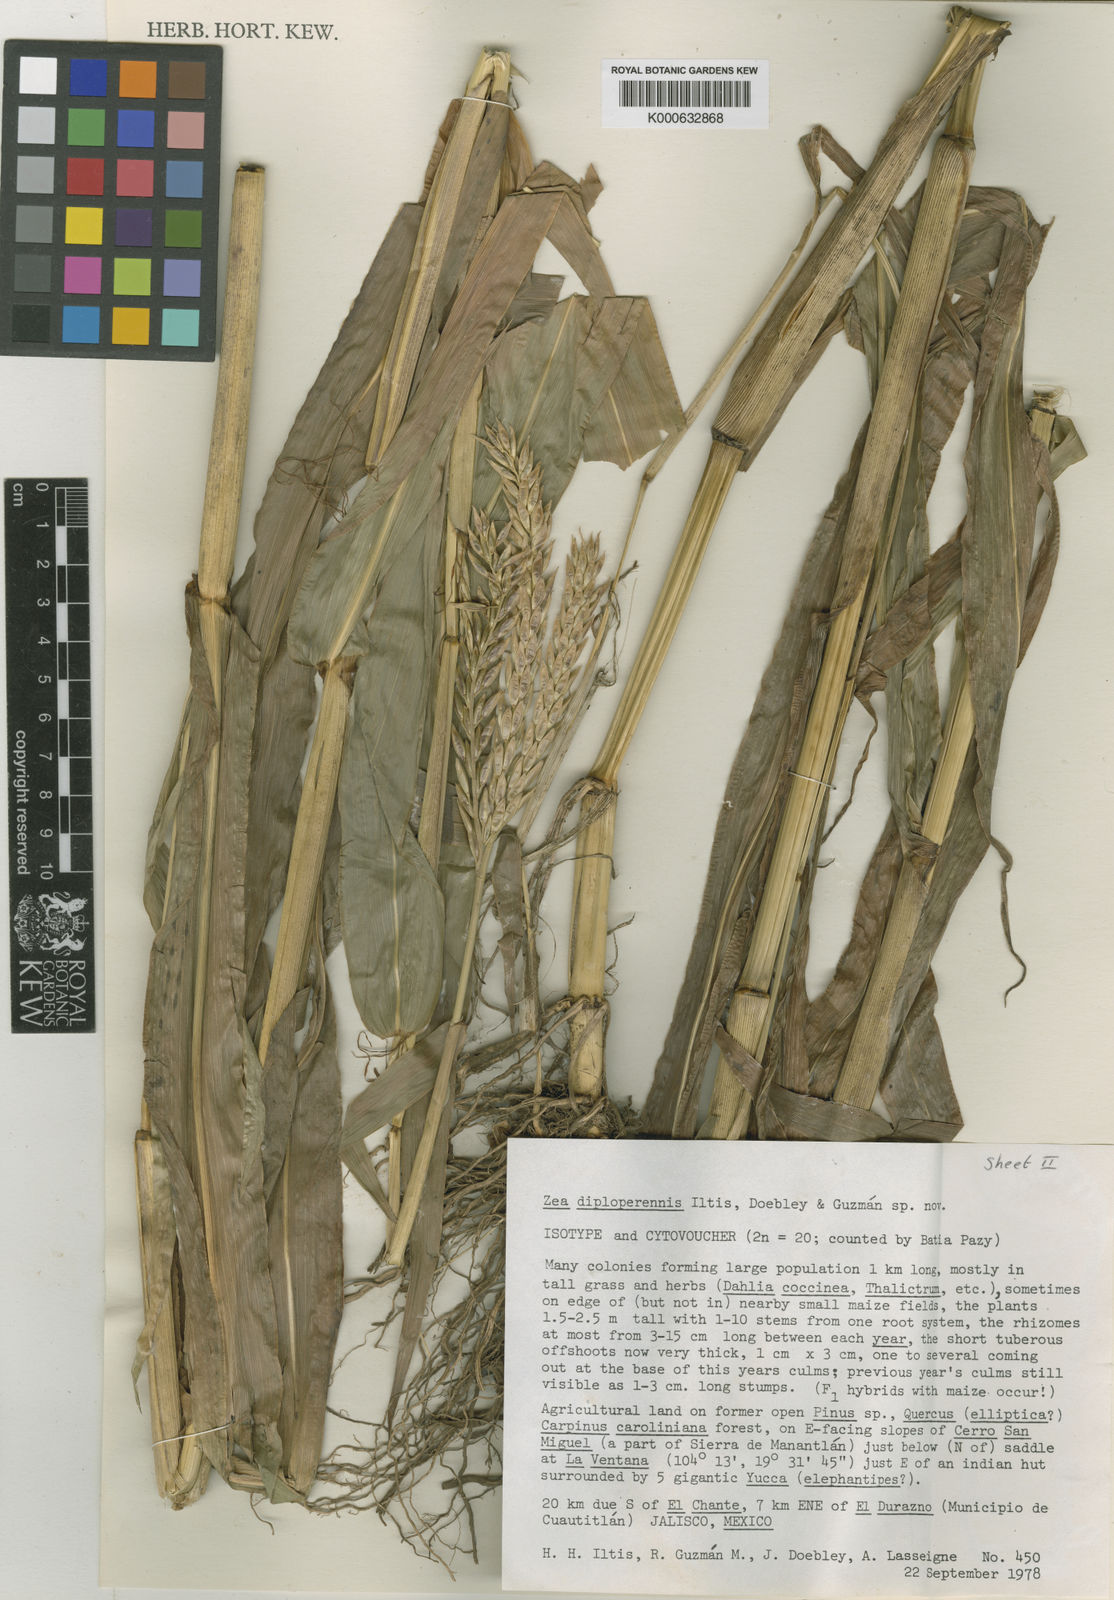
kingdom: Plantae
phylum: Tracheophyta
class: Liliopsida
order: Poales
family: Poaceae
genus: Zea
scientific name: Zea
